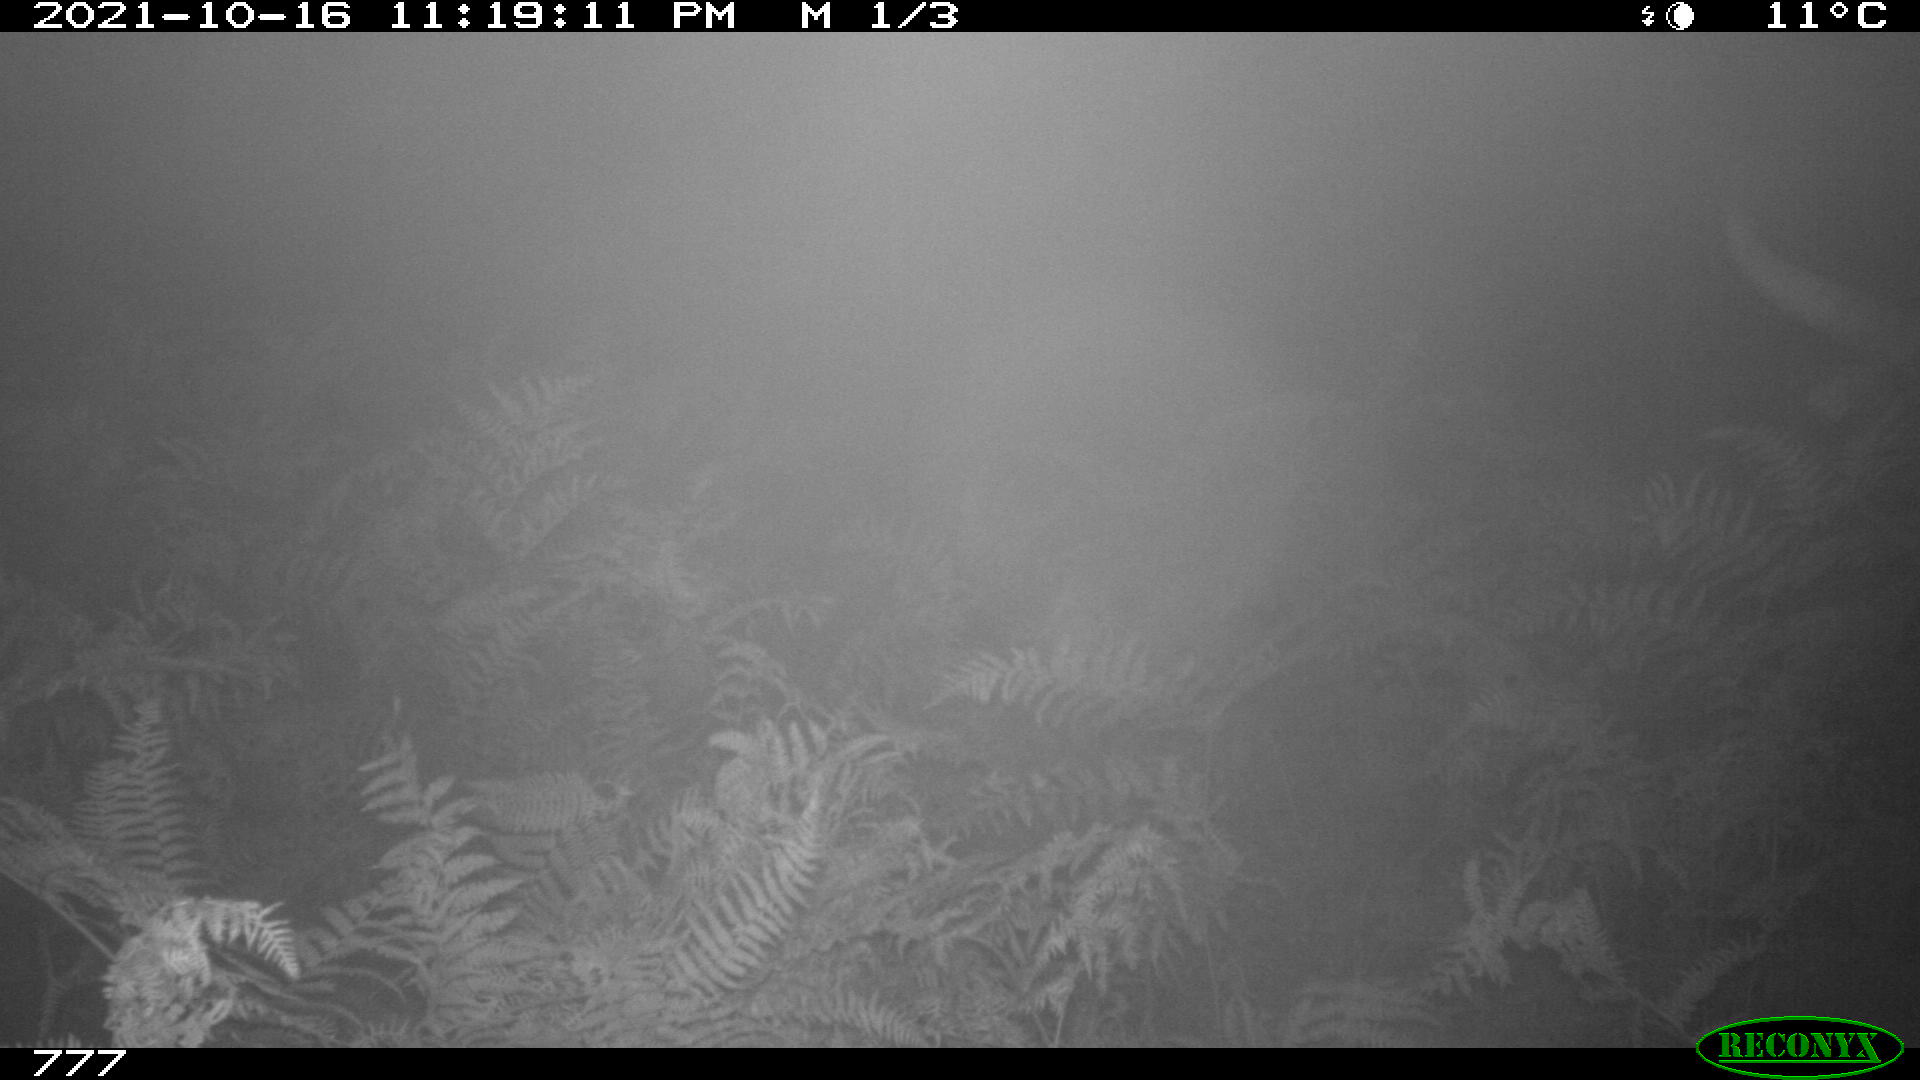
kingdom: Animalia
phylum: Chordata
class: Mammalia
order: Artiodactyla
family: Bovidae
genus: Bos
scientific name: Bos taurus
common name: Domesticated cattle
